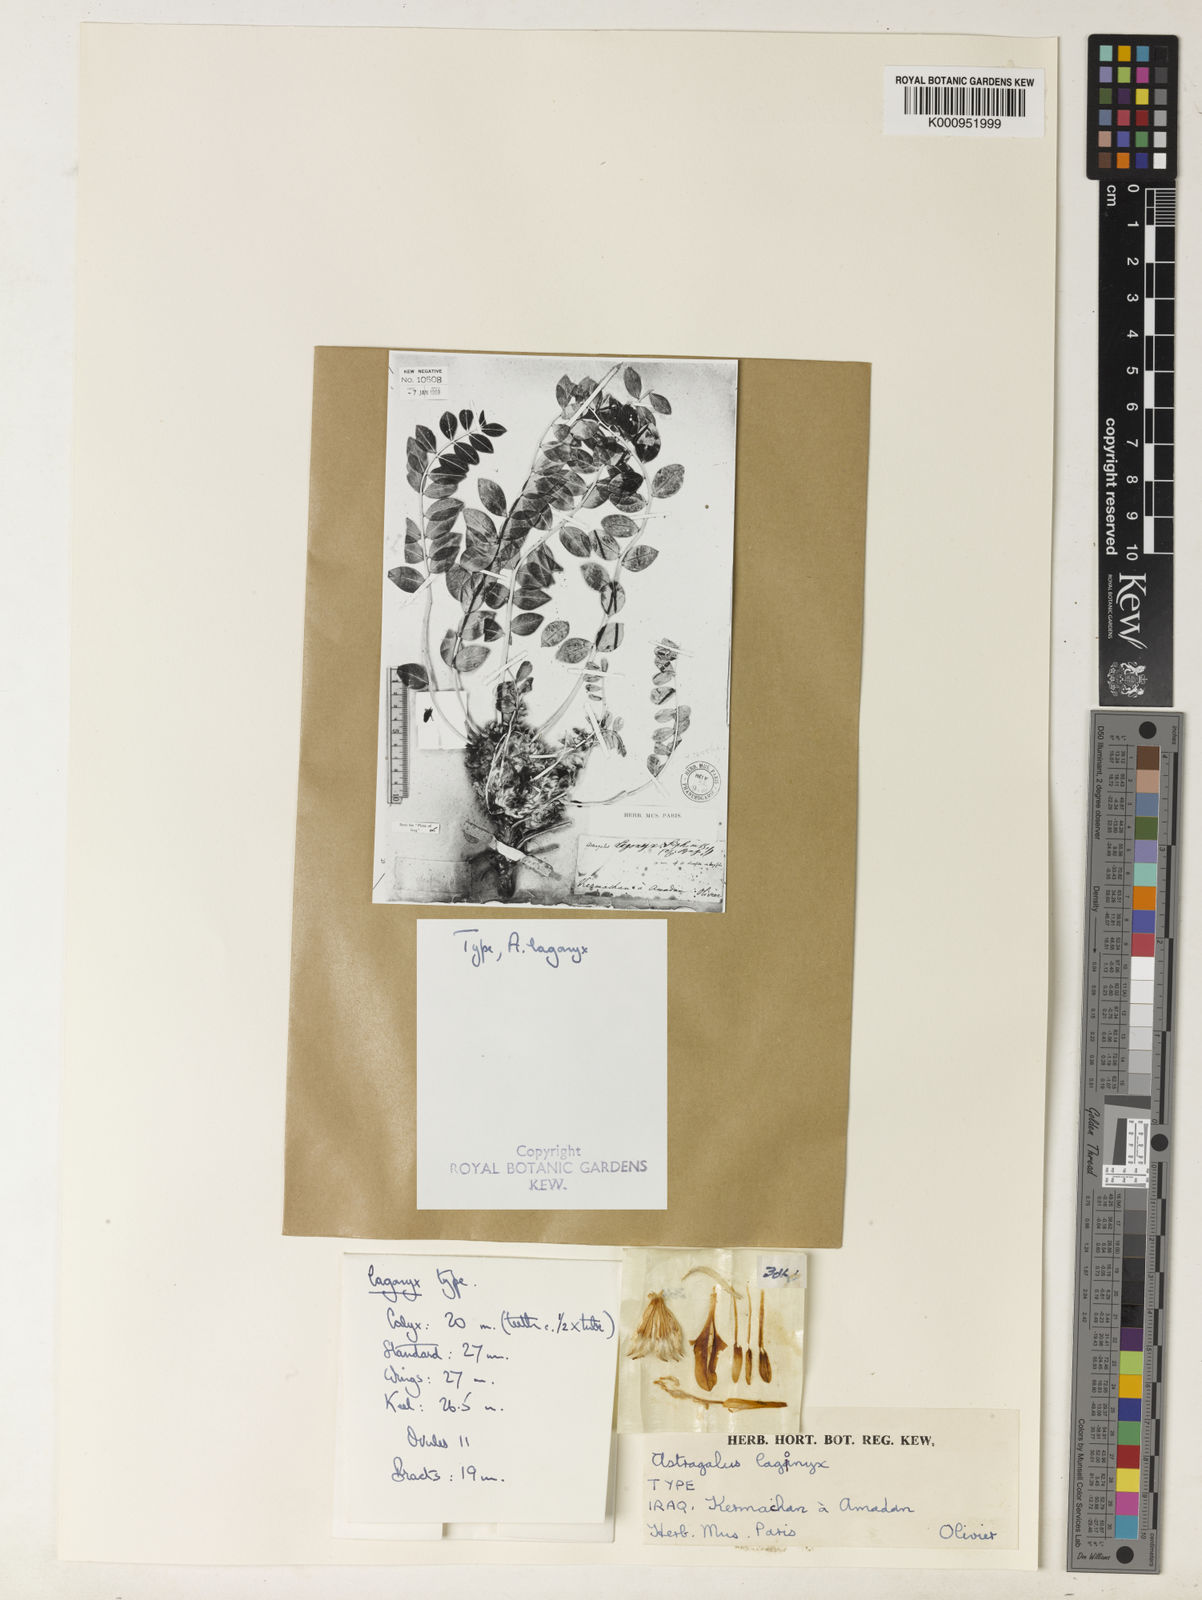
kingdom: Plantae
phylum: Tracheophyta
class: Magnoliopsida
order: Fabales
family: Fabaceae
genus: Astragalus
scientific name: Astragalus oleifolius
